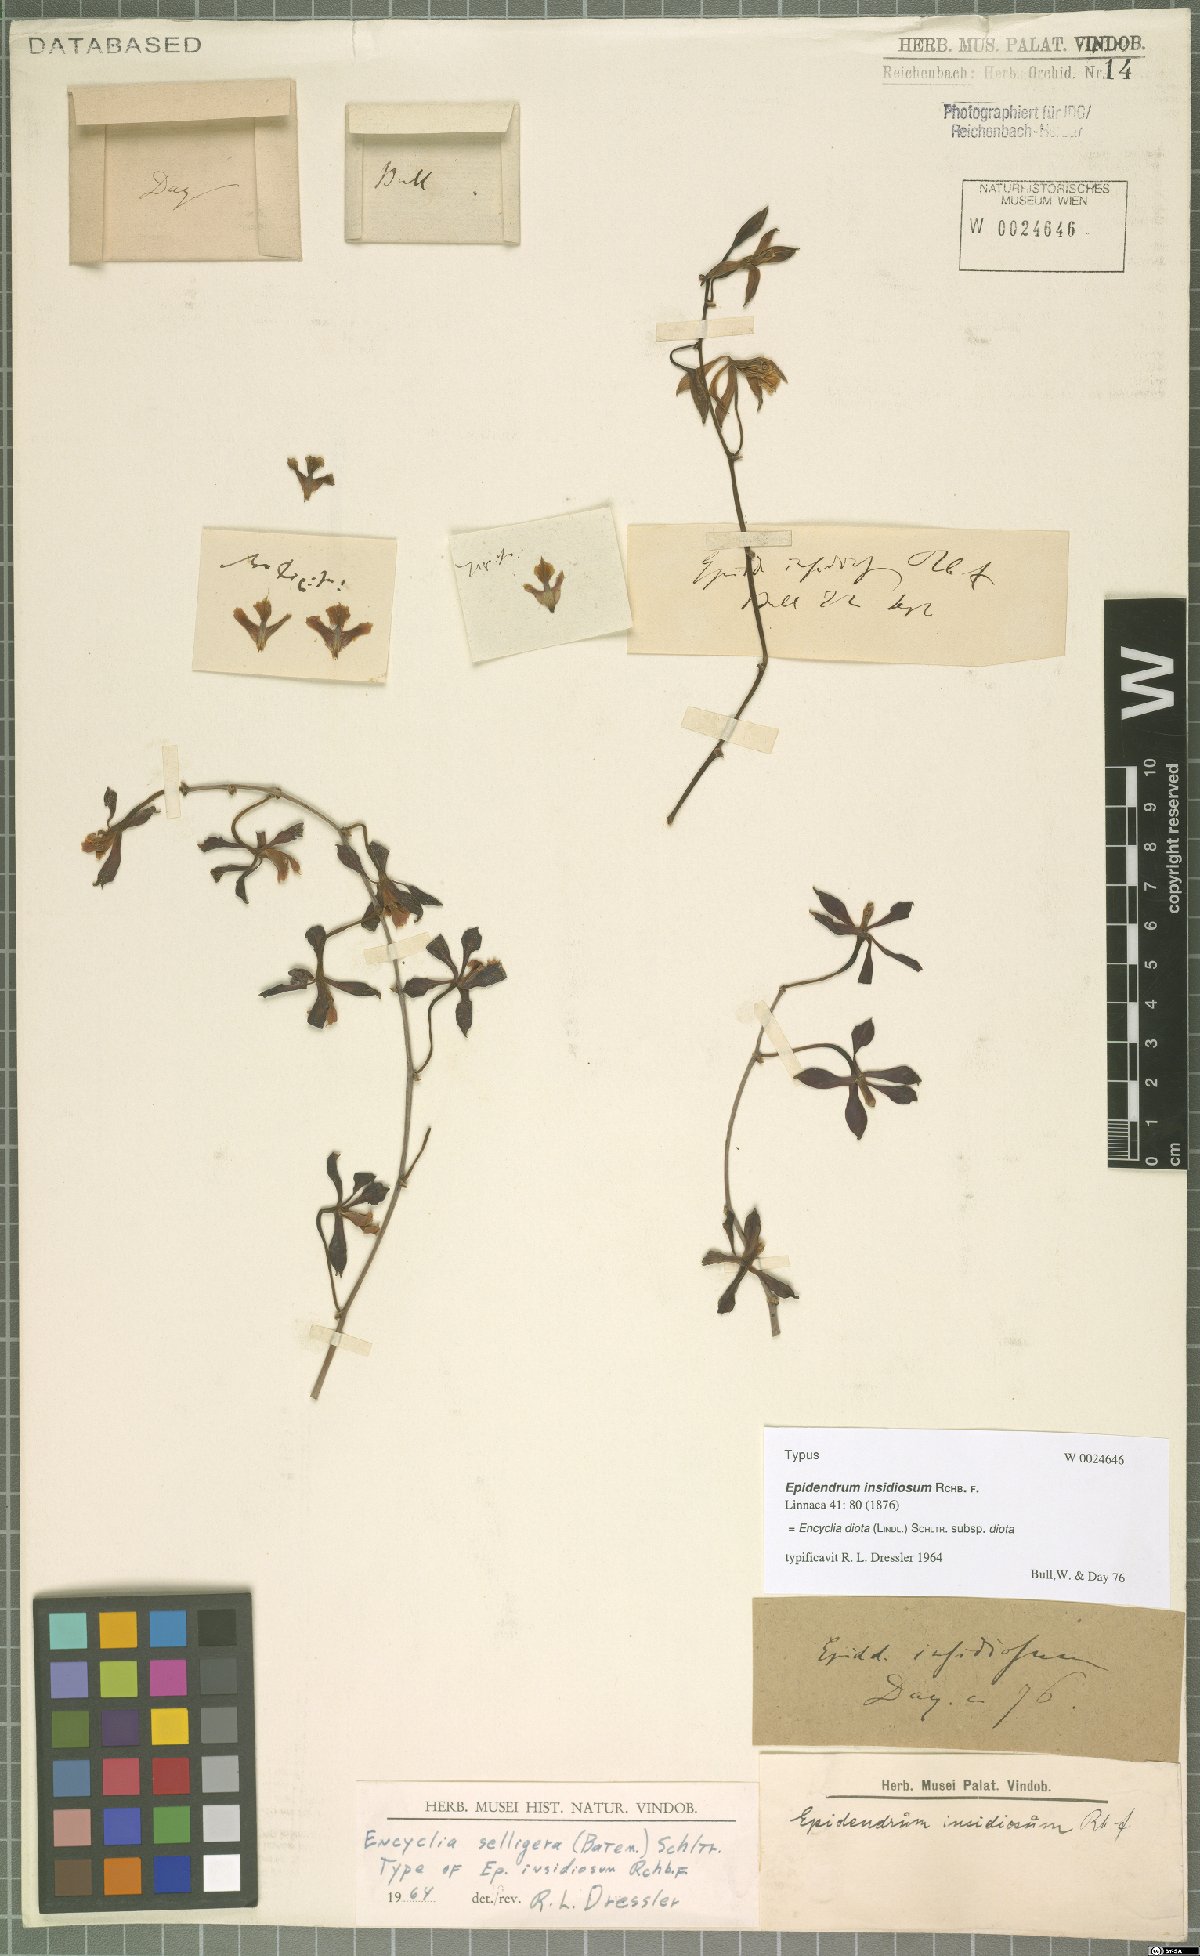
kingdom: Plantae
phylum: Tracheophyta
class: Liliopsida
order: Asparagales
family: Orchidaceae
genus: Encyclia
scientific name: Encyclia diota
